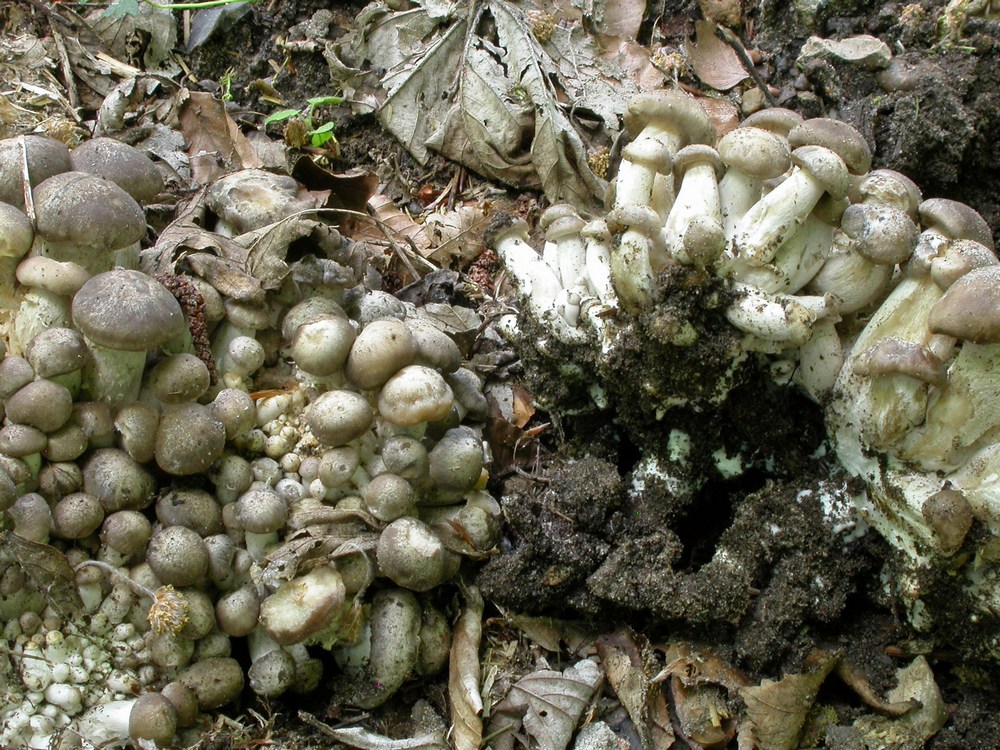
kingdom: Fungi
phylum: Basidiomycota
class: Agaricomycetes
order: Agaricales
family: Lyophyllaceae
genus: Lyophyllum
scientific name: Lyophyllum decastes
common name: røggrå gråblad
